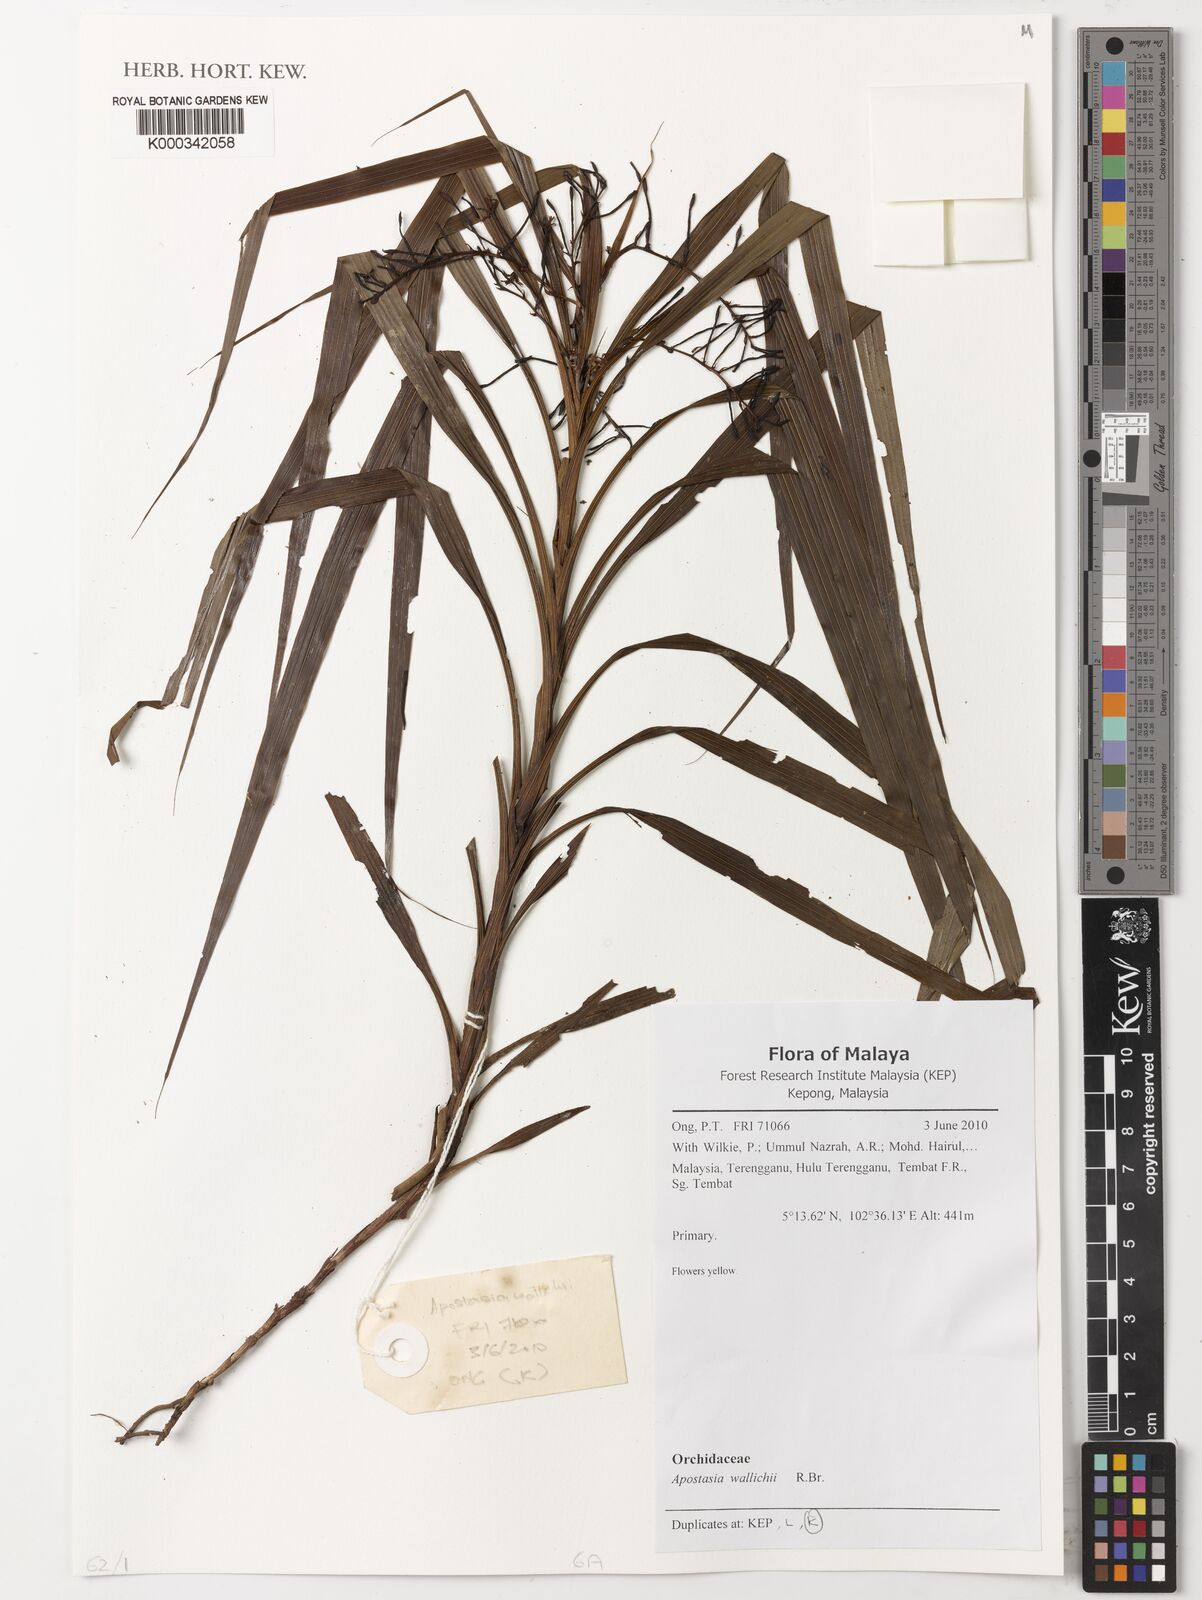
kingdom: Plantae
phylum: Tracheophyta
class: Liliopsida
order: Asparagales
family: Orchidaceae
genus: Apostasia
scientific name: Apostasia wallichii
